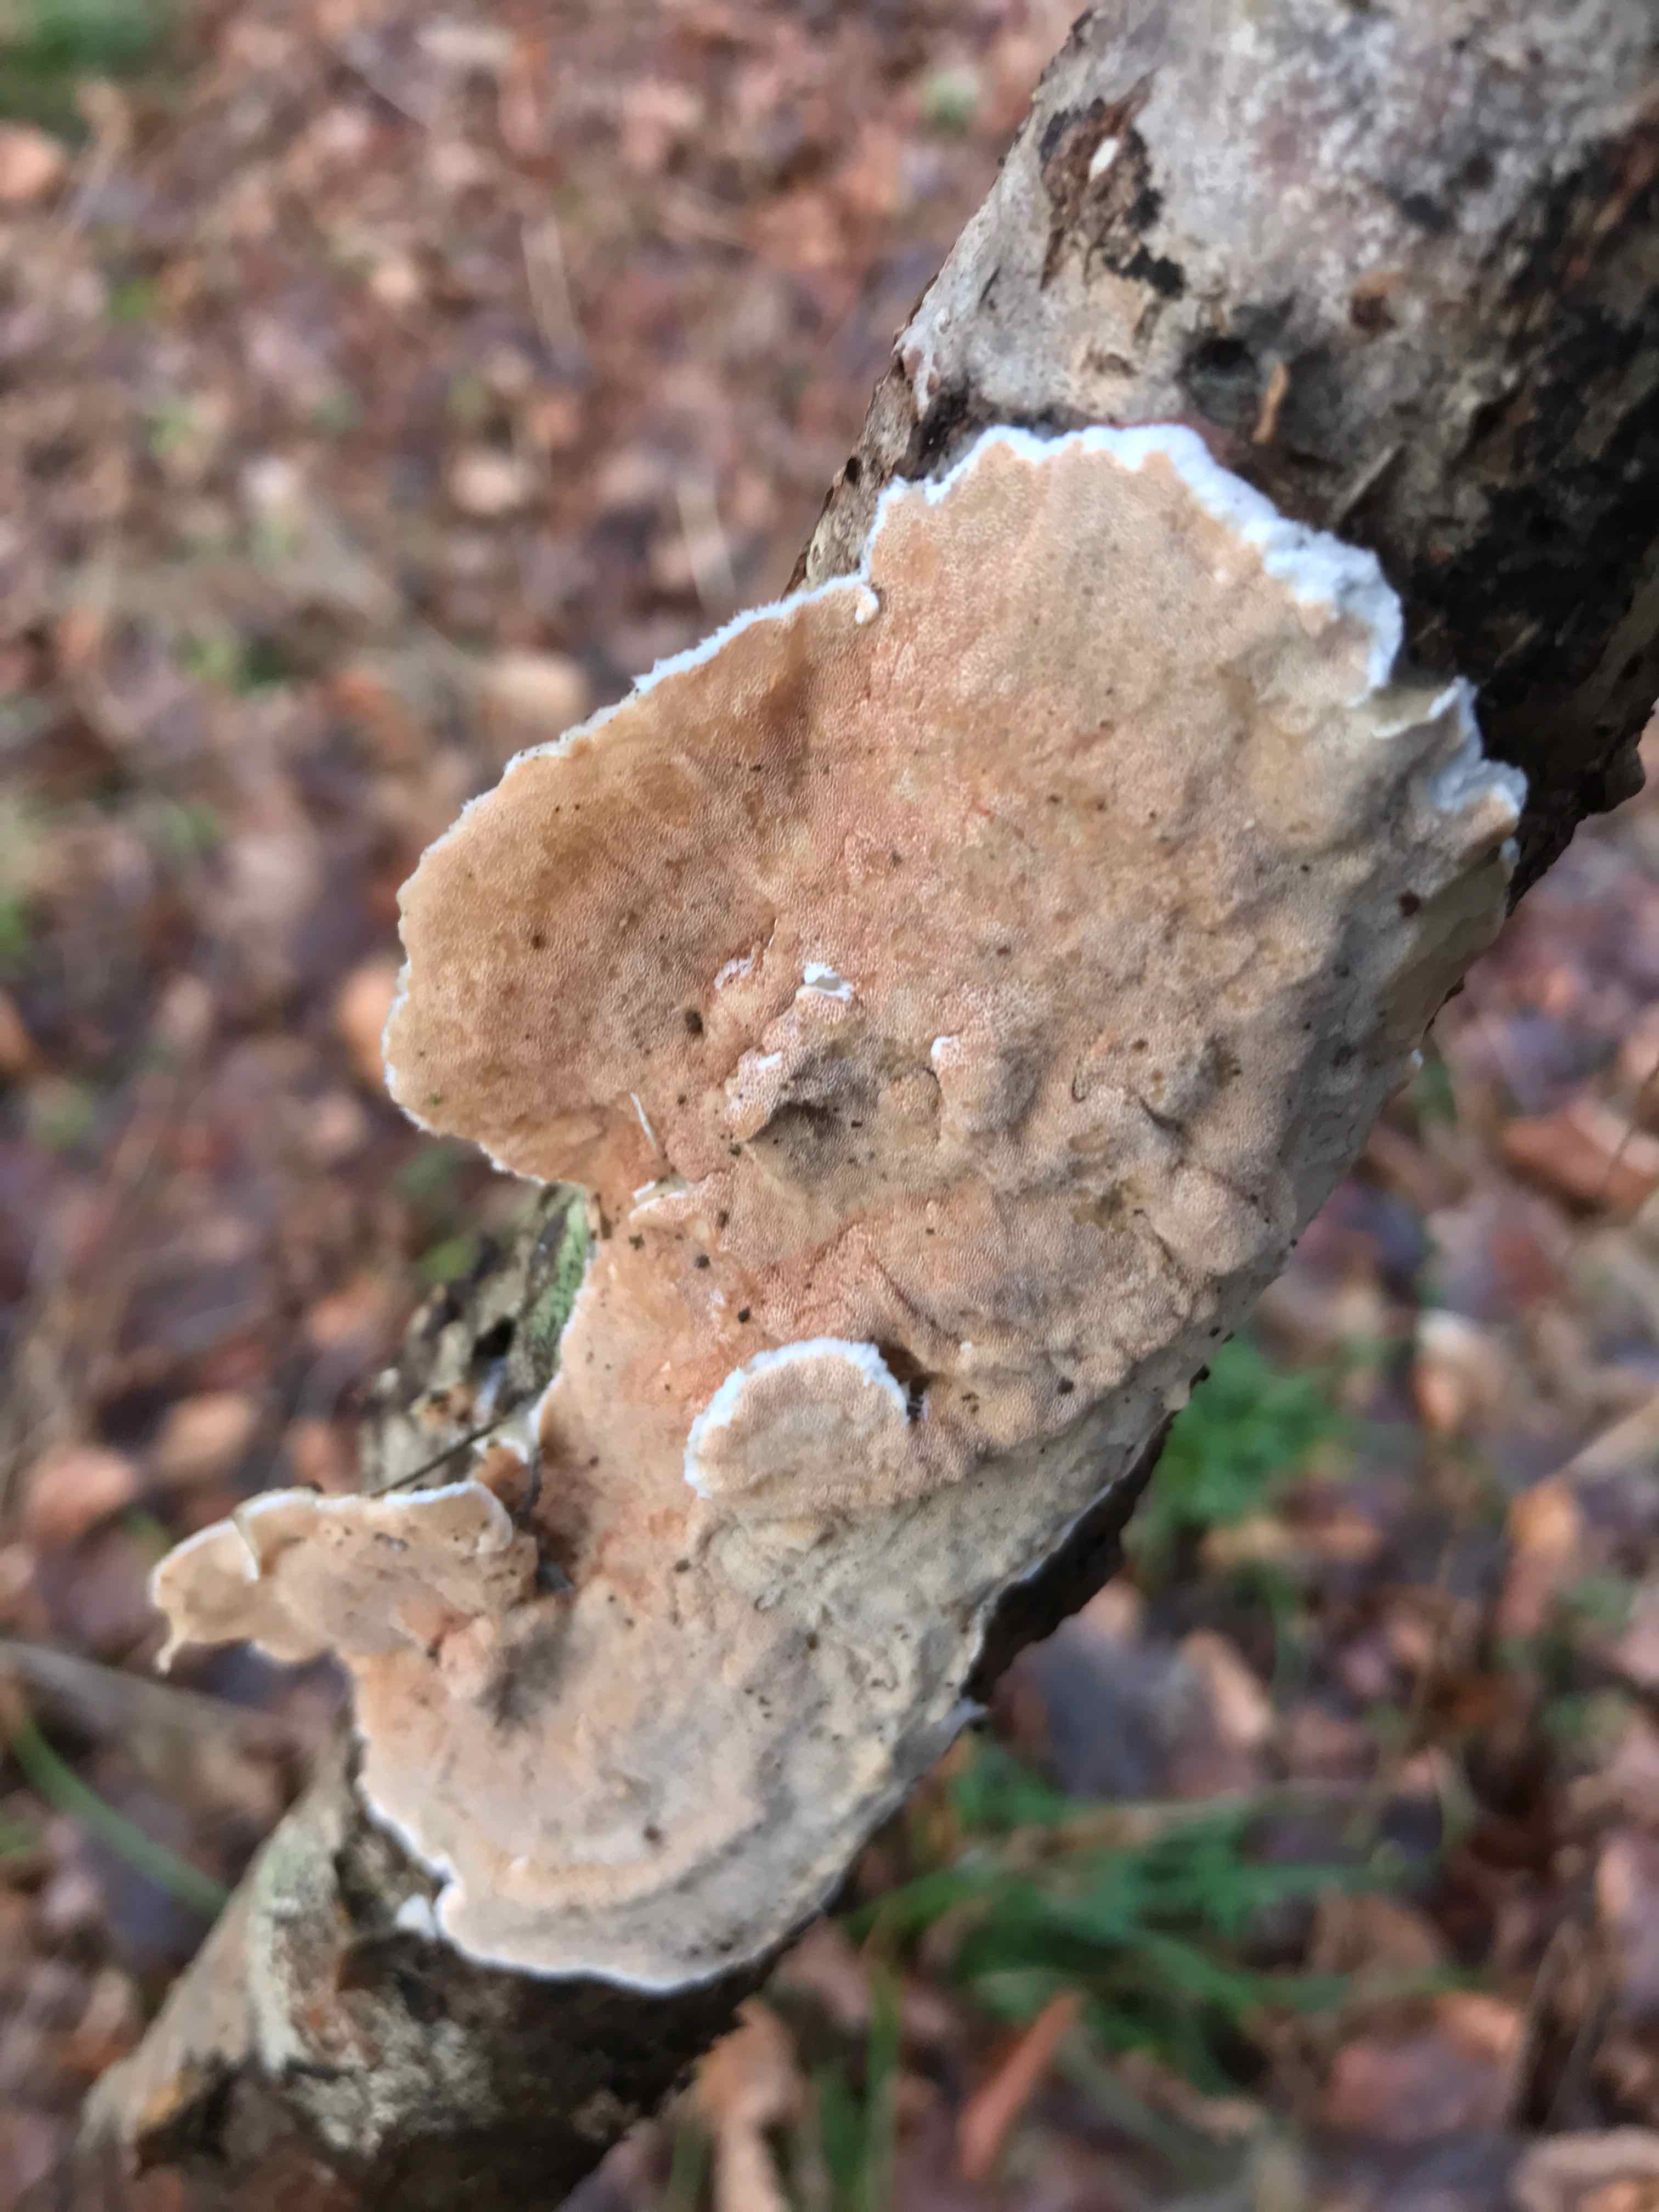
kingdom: Fungi
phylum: Basidiomycota
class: Agaricomycetes
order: Polyporales
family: Irpicaceae
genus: Vitreoporus
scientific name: Vitreoporus dichrous
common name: tofarvet foldporesvamp
